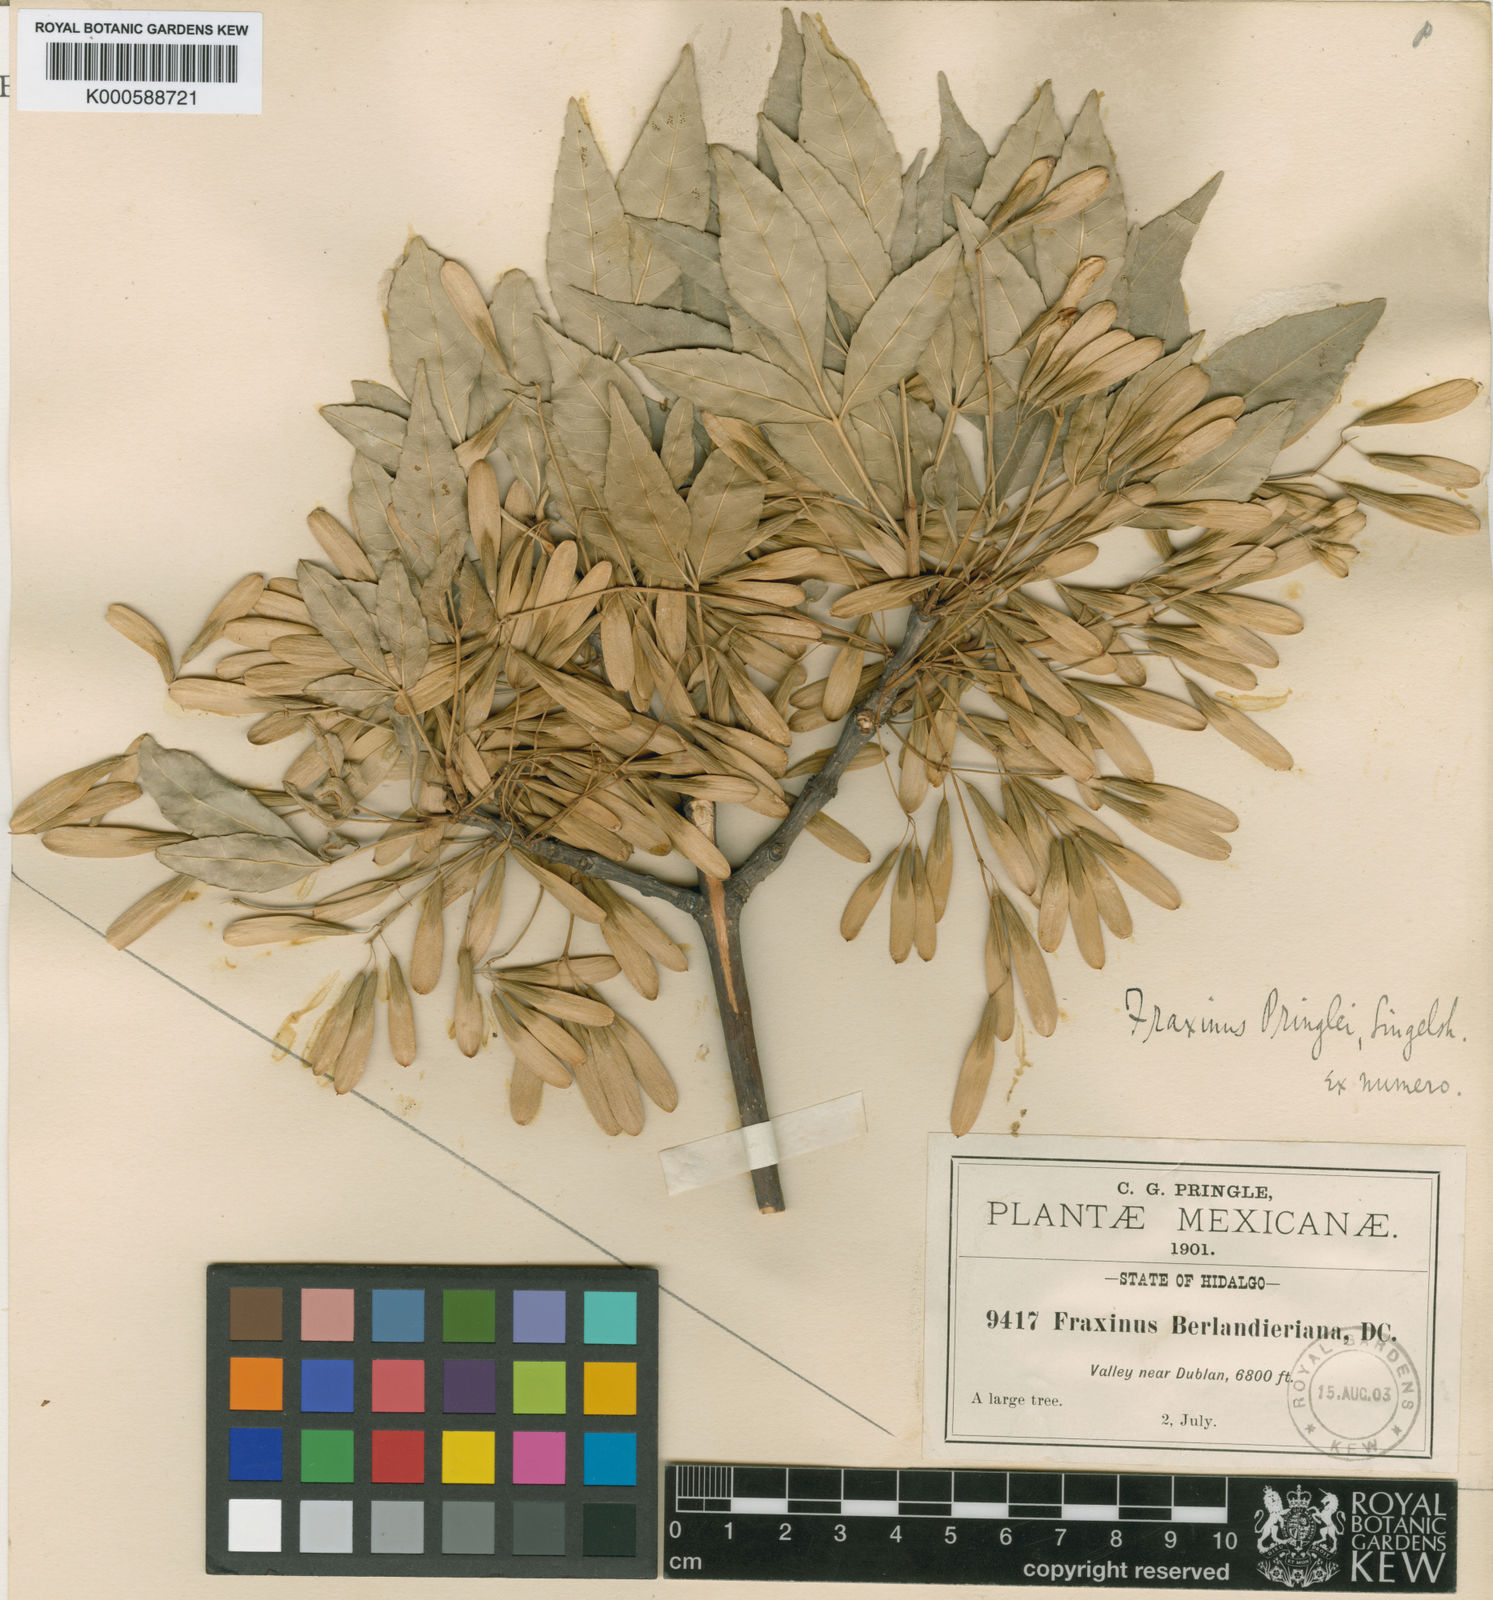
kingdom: Plantae
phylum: Tracheophyta
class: Magnoliopsida
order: Lamiales
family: Oleaceae
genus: Fraxinus
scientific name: Fraxinus pringlei
